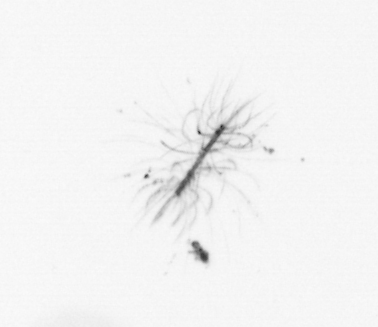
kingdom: Chromista
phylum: Ochrophyta
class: Bacillariophyceae
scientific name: Bacillariophyceae
